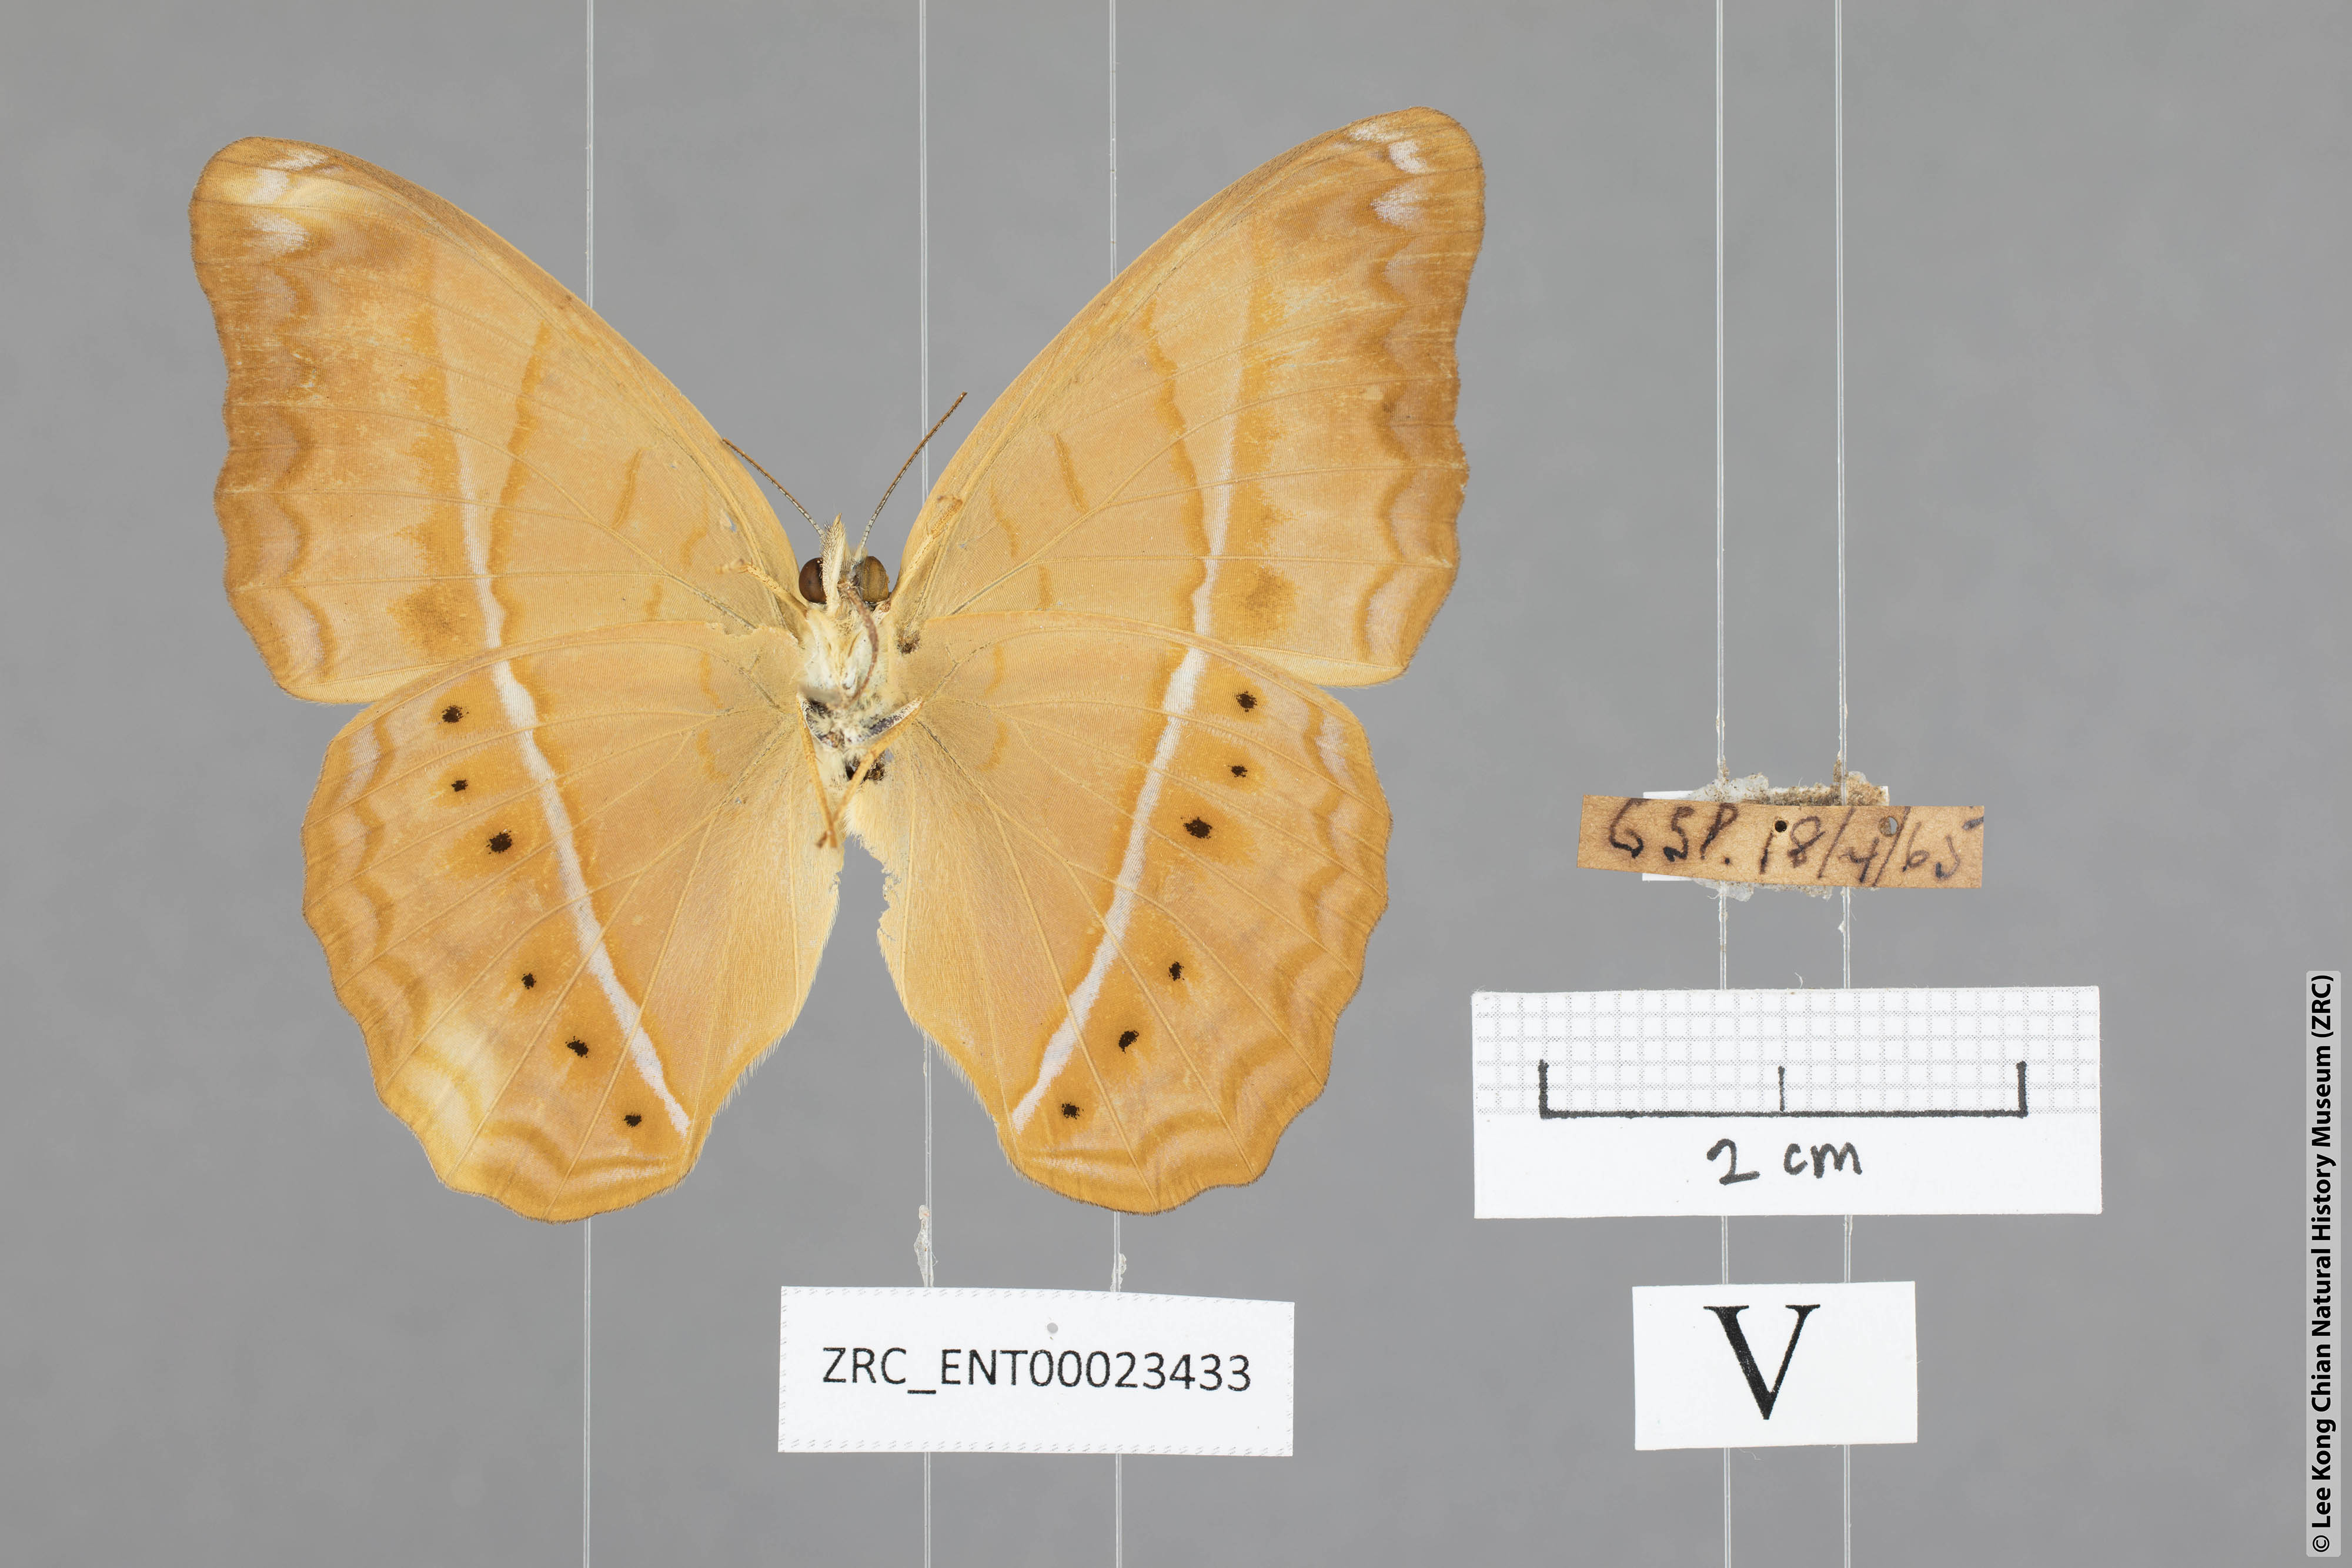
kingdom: Animalia
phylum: Arthropoda
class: Insecta
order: Lepidoptera
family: Nymphalidae
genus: Cirrochroa
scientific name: Cirrochroa malaya
